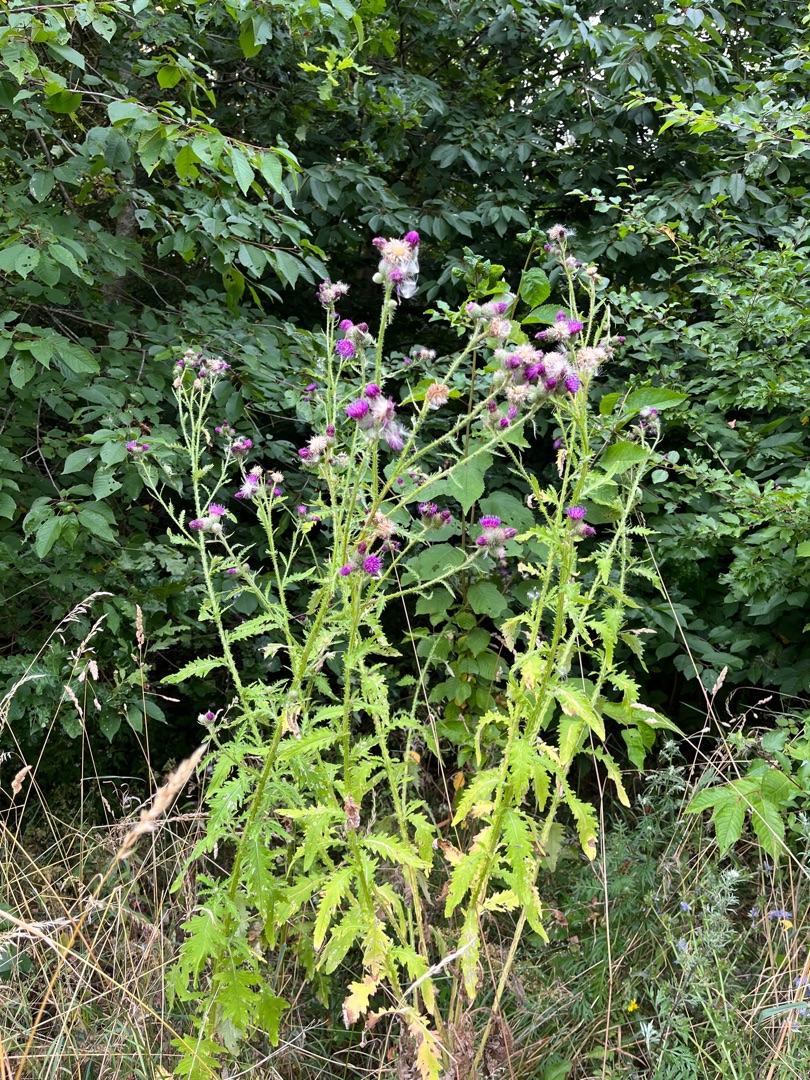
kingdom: Plantae
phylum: Tracheophyta
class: Magnoliopsida
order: Asterales
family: Asteraceae
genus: Carduus
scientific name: Carduus crispus
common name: Kruset tidsel
